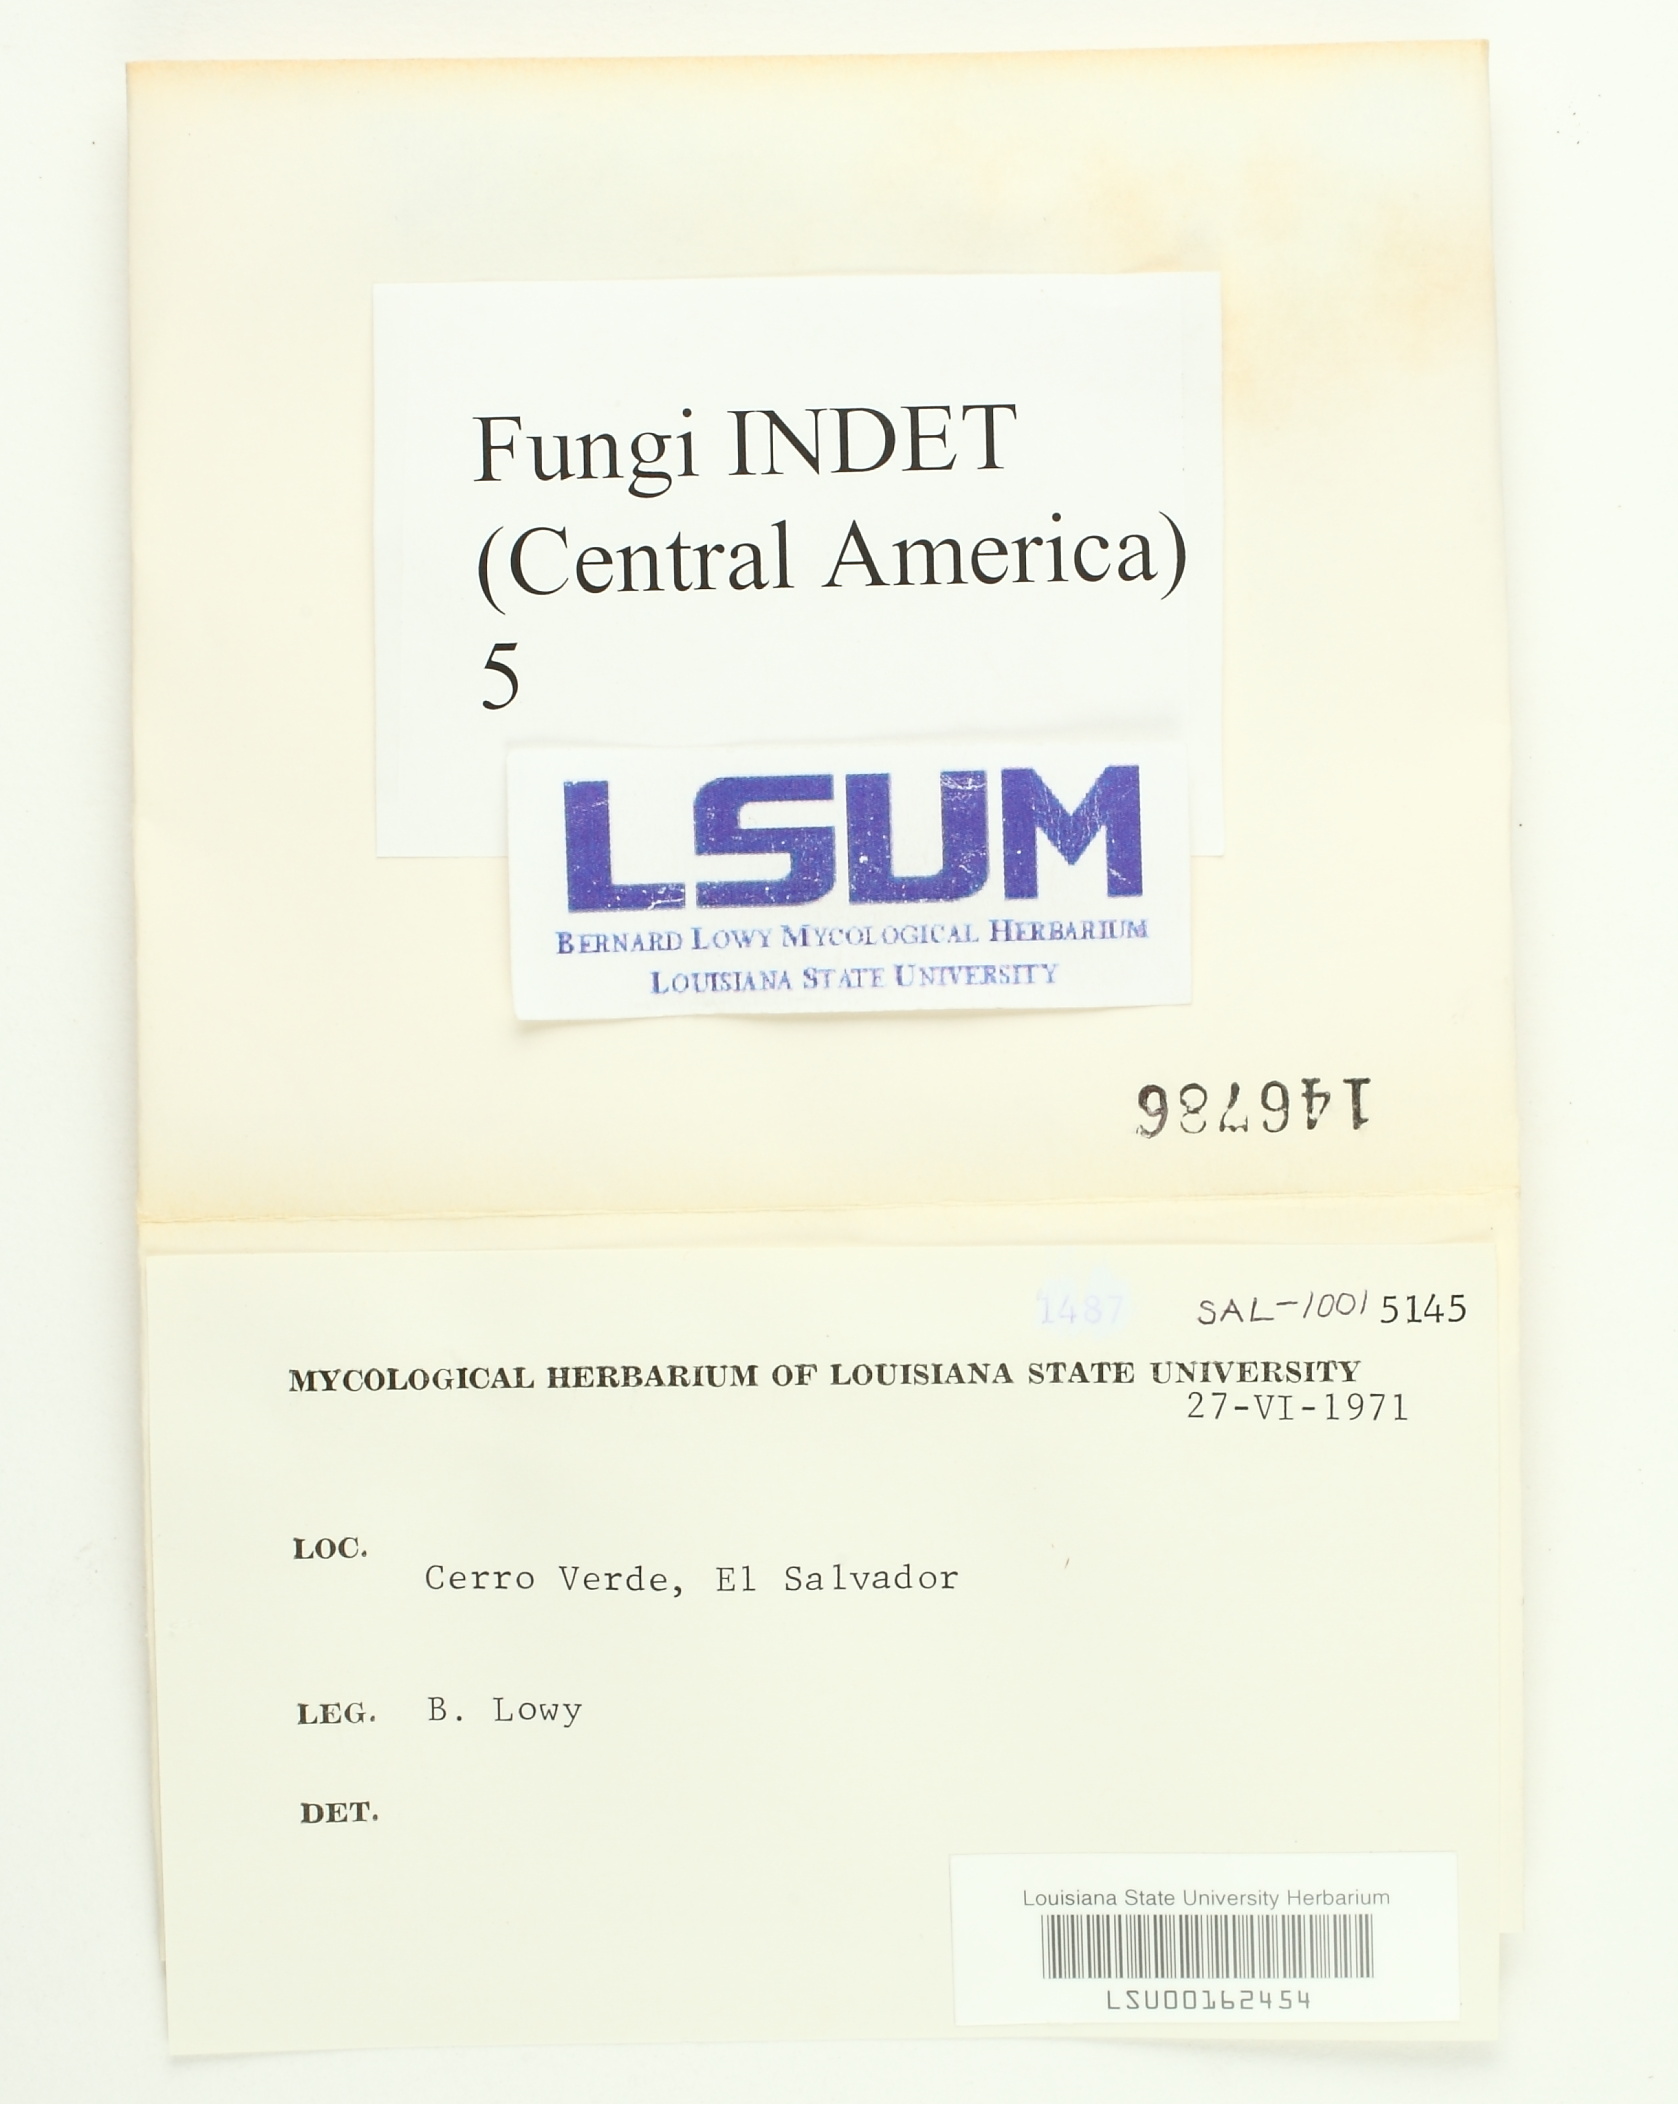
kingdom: Fungi
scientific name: Fungi
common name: Fungi
